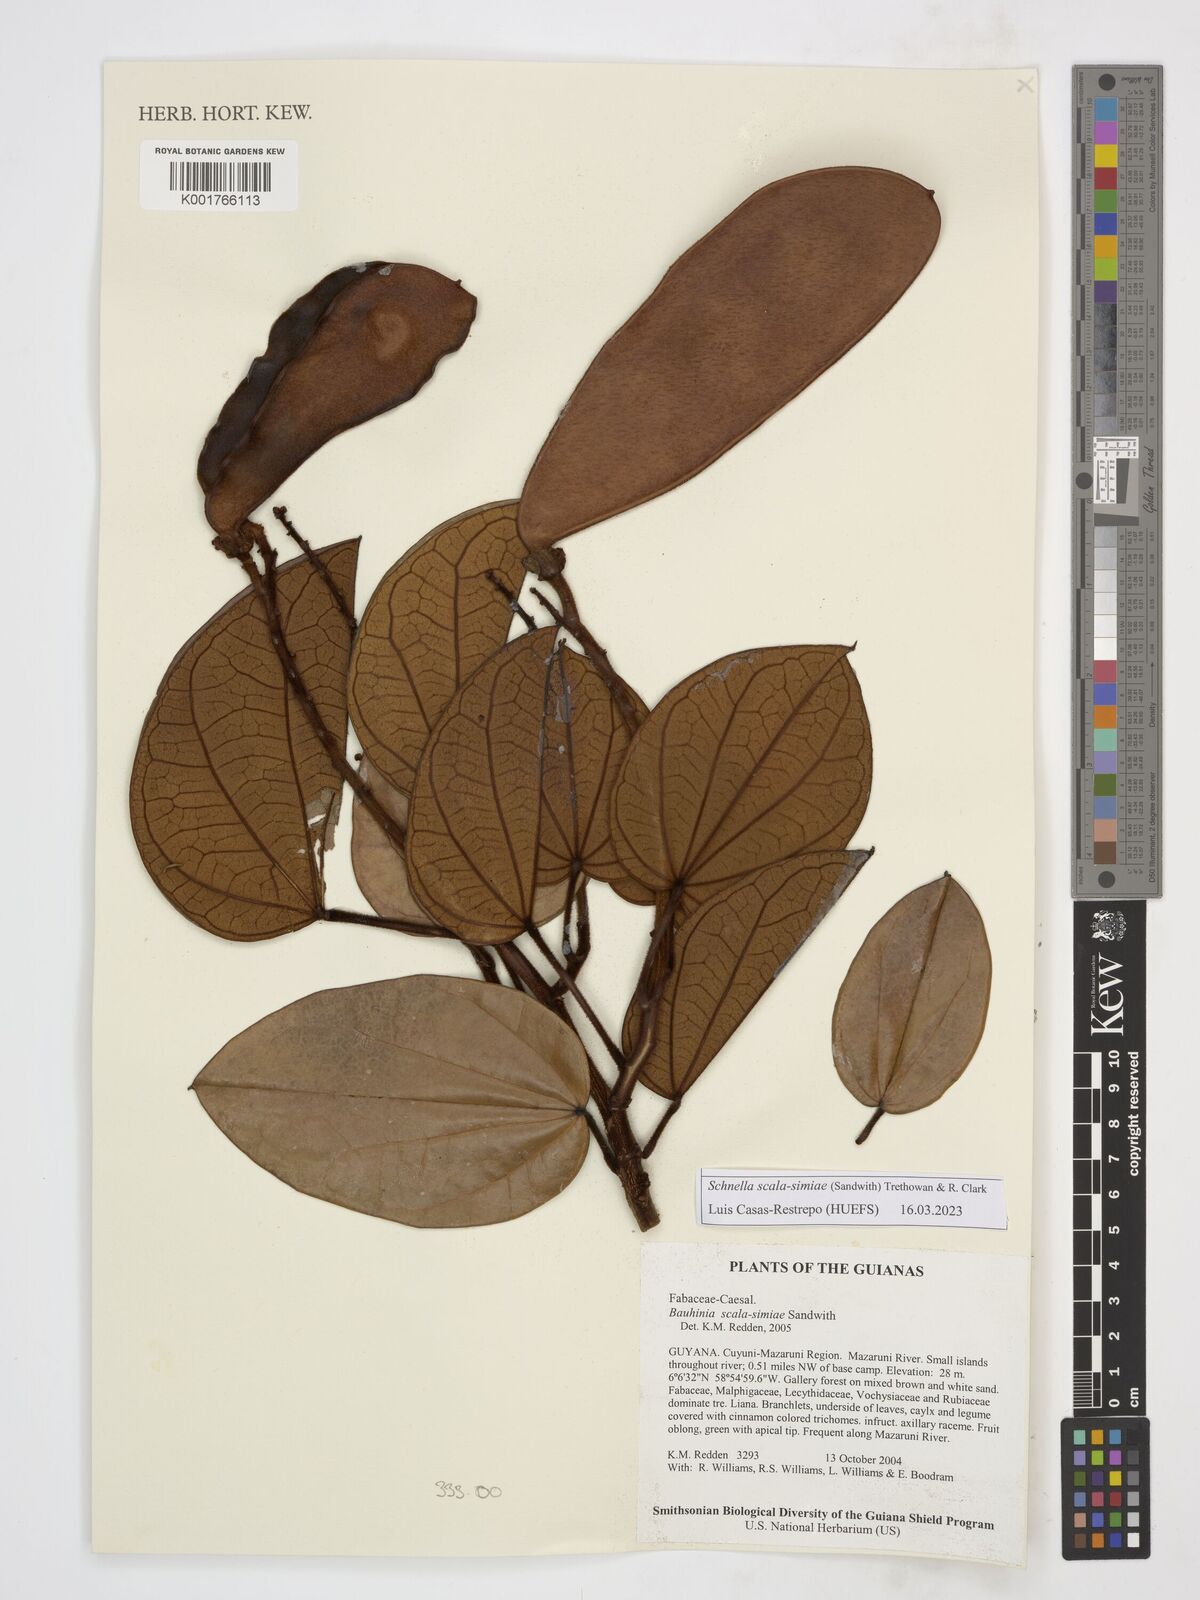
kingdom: Plantae
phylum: Tracheophyta
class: Magnoliopsida
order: Fabales
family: Fabaceae
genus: Schnella
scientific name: Schnella scala-simiae
